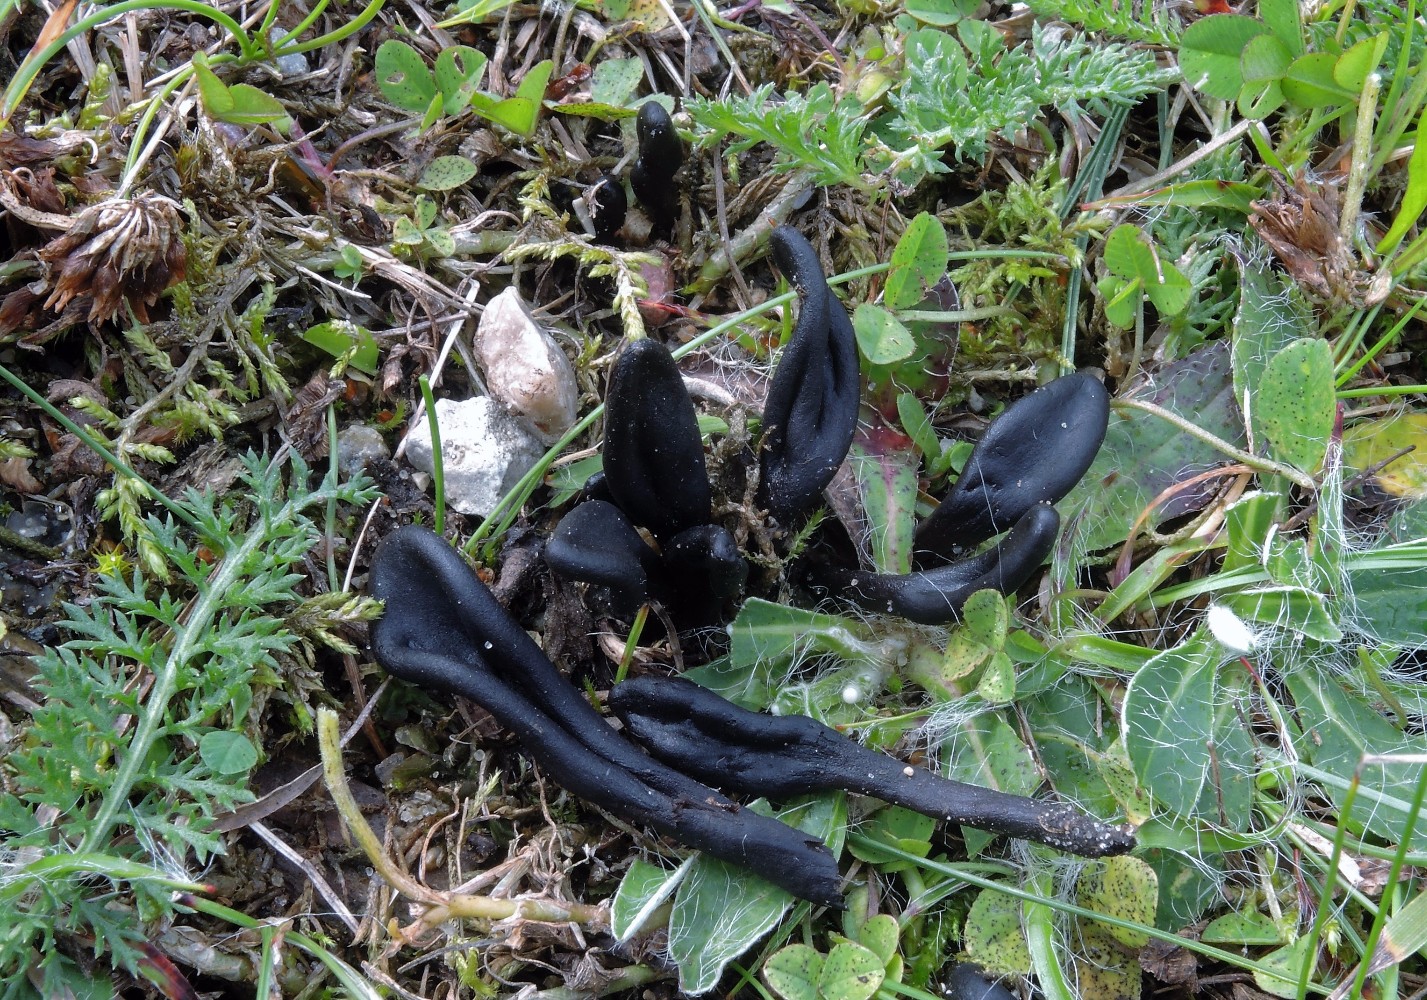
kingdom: Fungi
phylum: Ascomycota
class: Geoglossomycetes
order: Geoglossales
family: Geoglossaceae
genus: Geoglossum
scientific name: Geoglossum umbratile
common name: slank jordtunge
